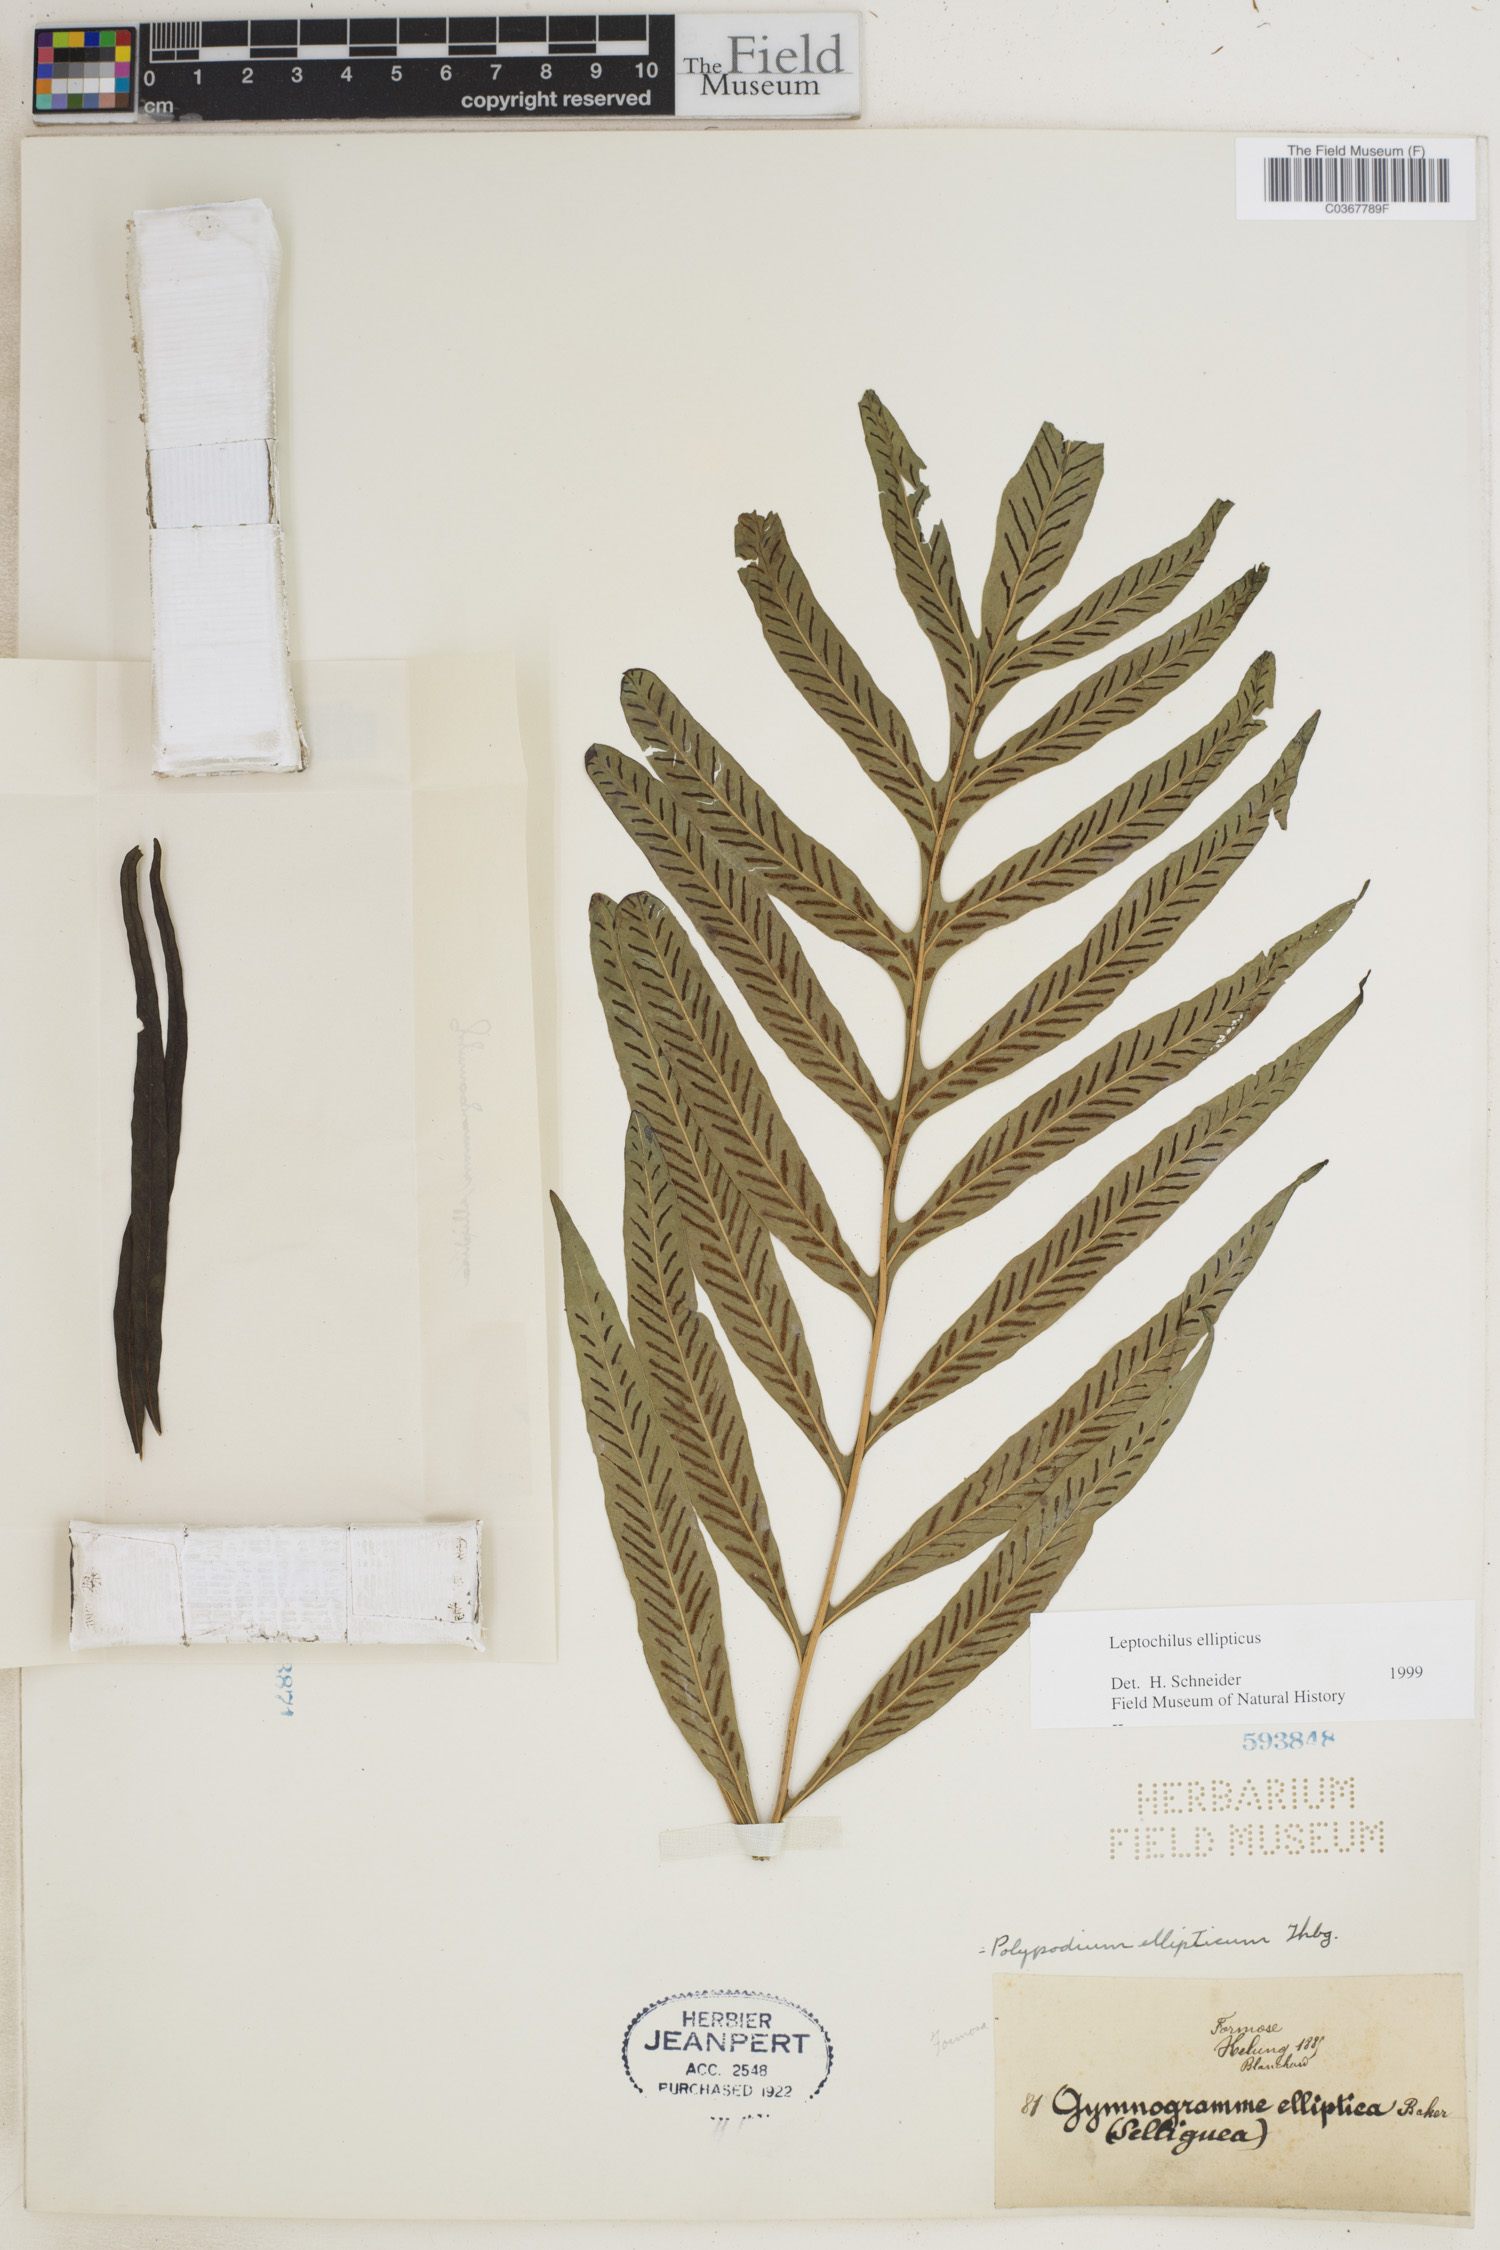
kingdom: Plantae
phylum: Tracheophyta
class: Polypodiopsida
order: Polypodiales
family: Polypodiaceae
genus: Leptochilus
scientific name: Leptochilus ellipticus
